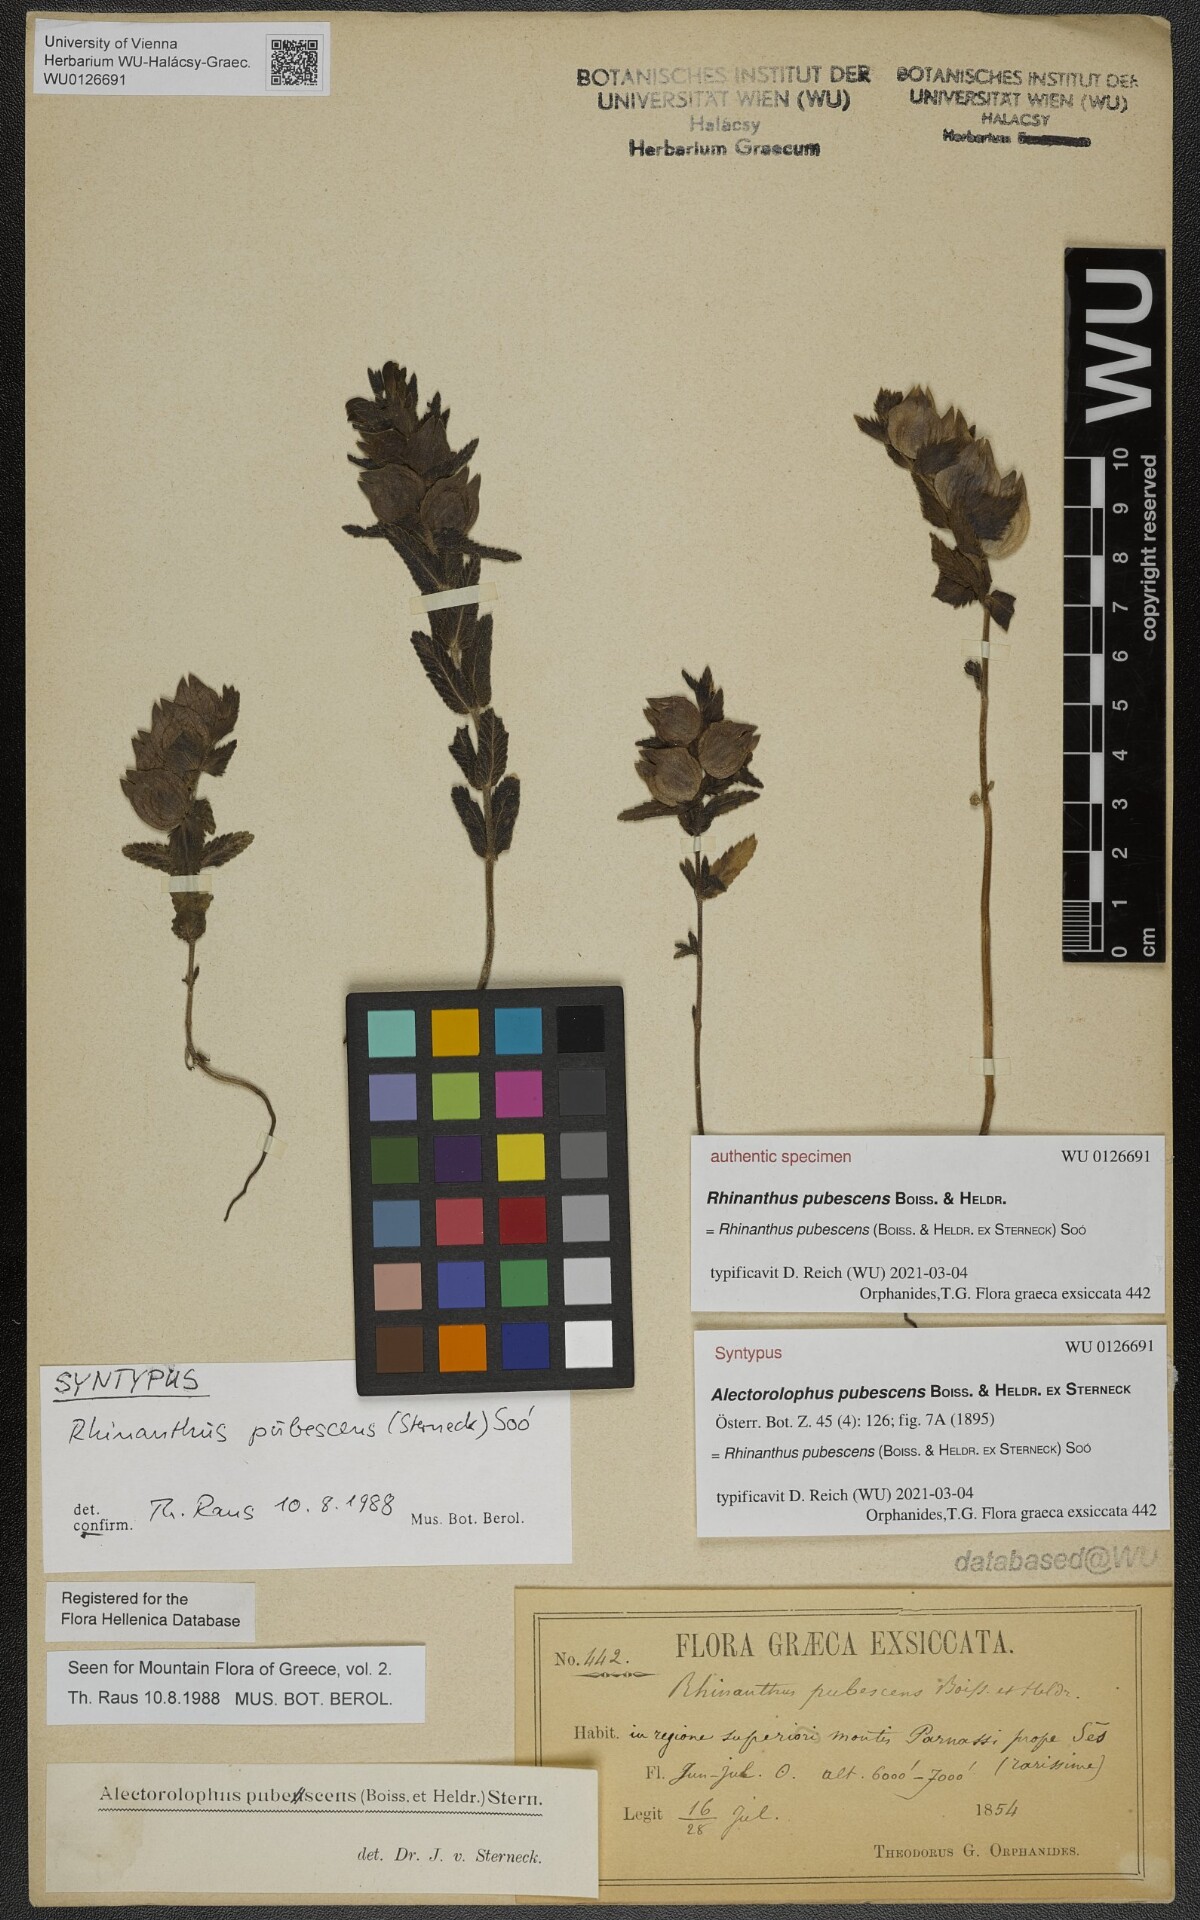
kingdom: Plantae
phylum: Tracheophyta
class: Magnoliopsida
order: Lamiales
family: Orobanchaceae
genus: Rhinanthus
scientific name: Rhinanthus pubescens
